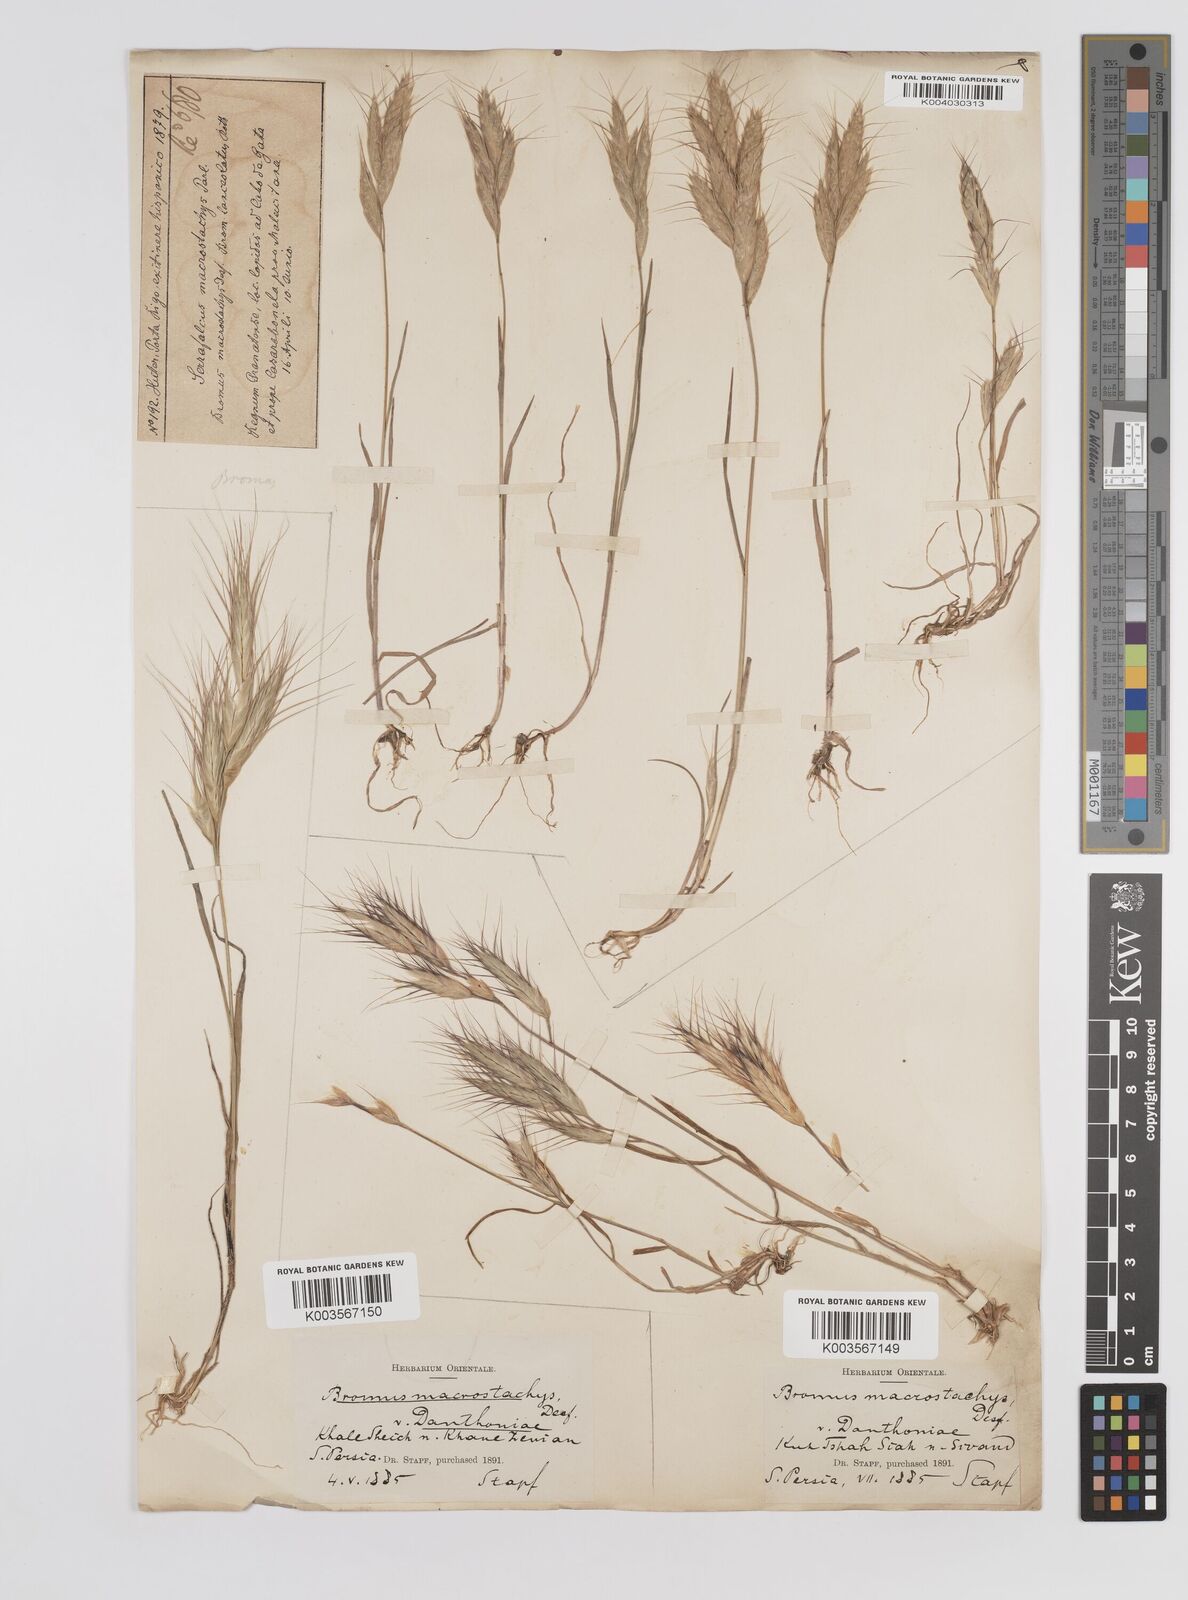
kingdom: Plantae
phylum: Tracheophyta
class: Liliopsida
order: Poales
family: Poaceae
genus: Bromus
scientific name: Bromus danthoniae
